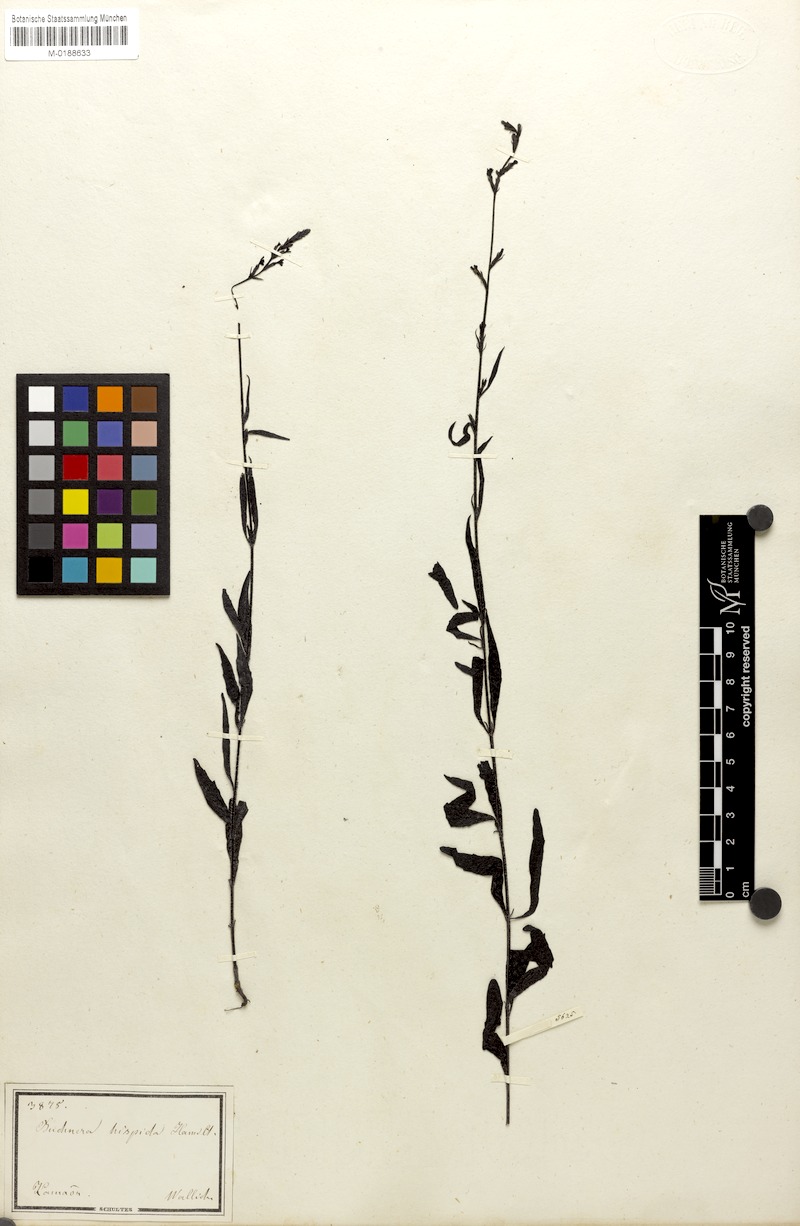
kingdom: Plantae
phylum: Tracheophyta
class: Magnoliopsida
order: Lamiales
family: Orobanchaceae
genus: Buchnera
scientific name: Buchnera hispida
